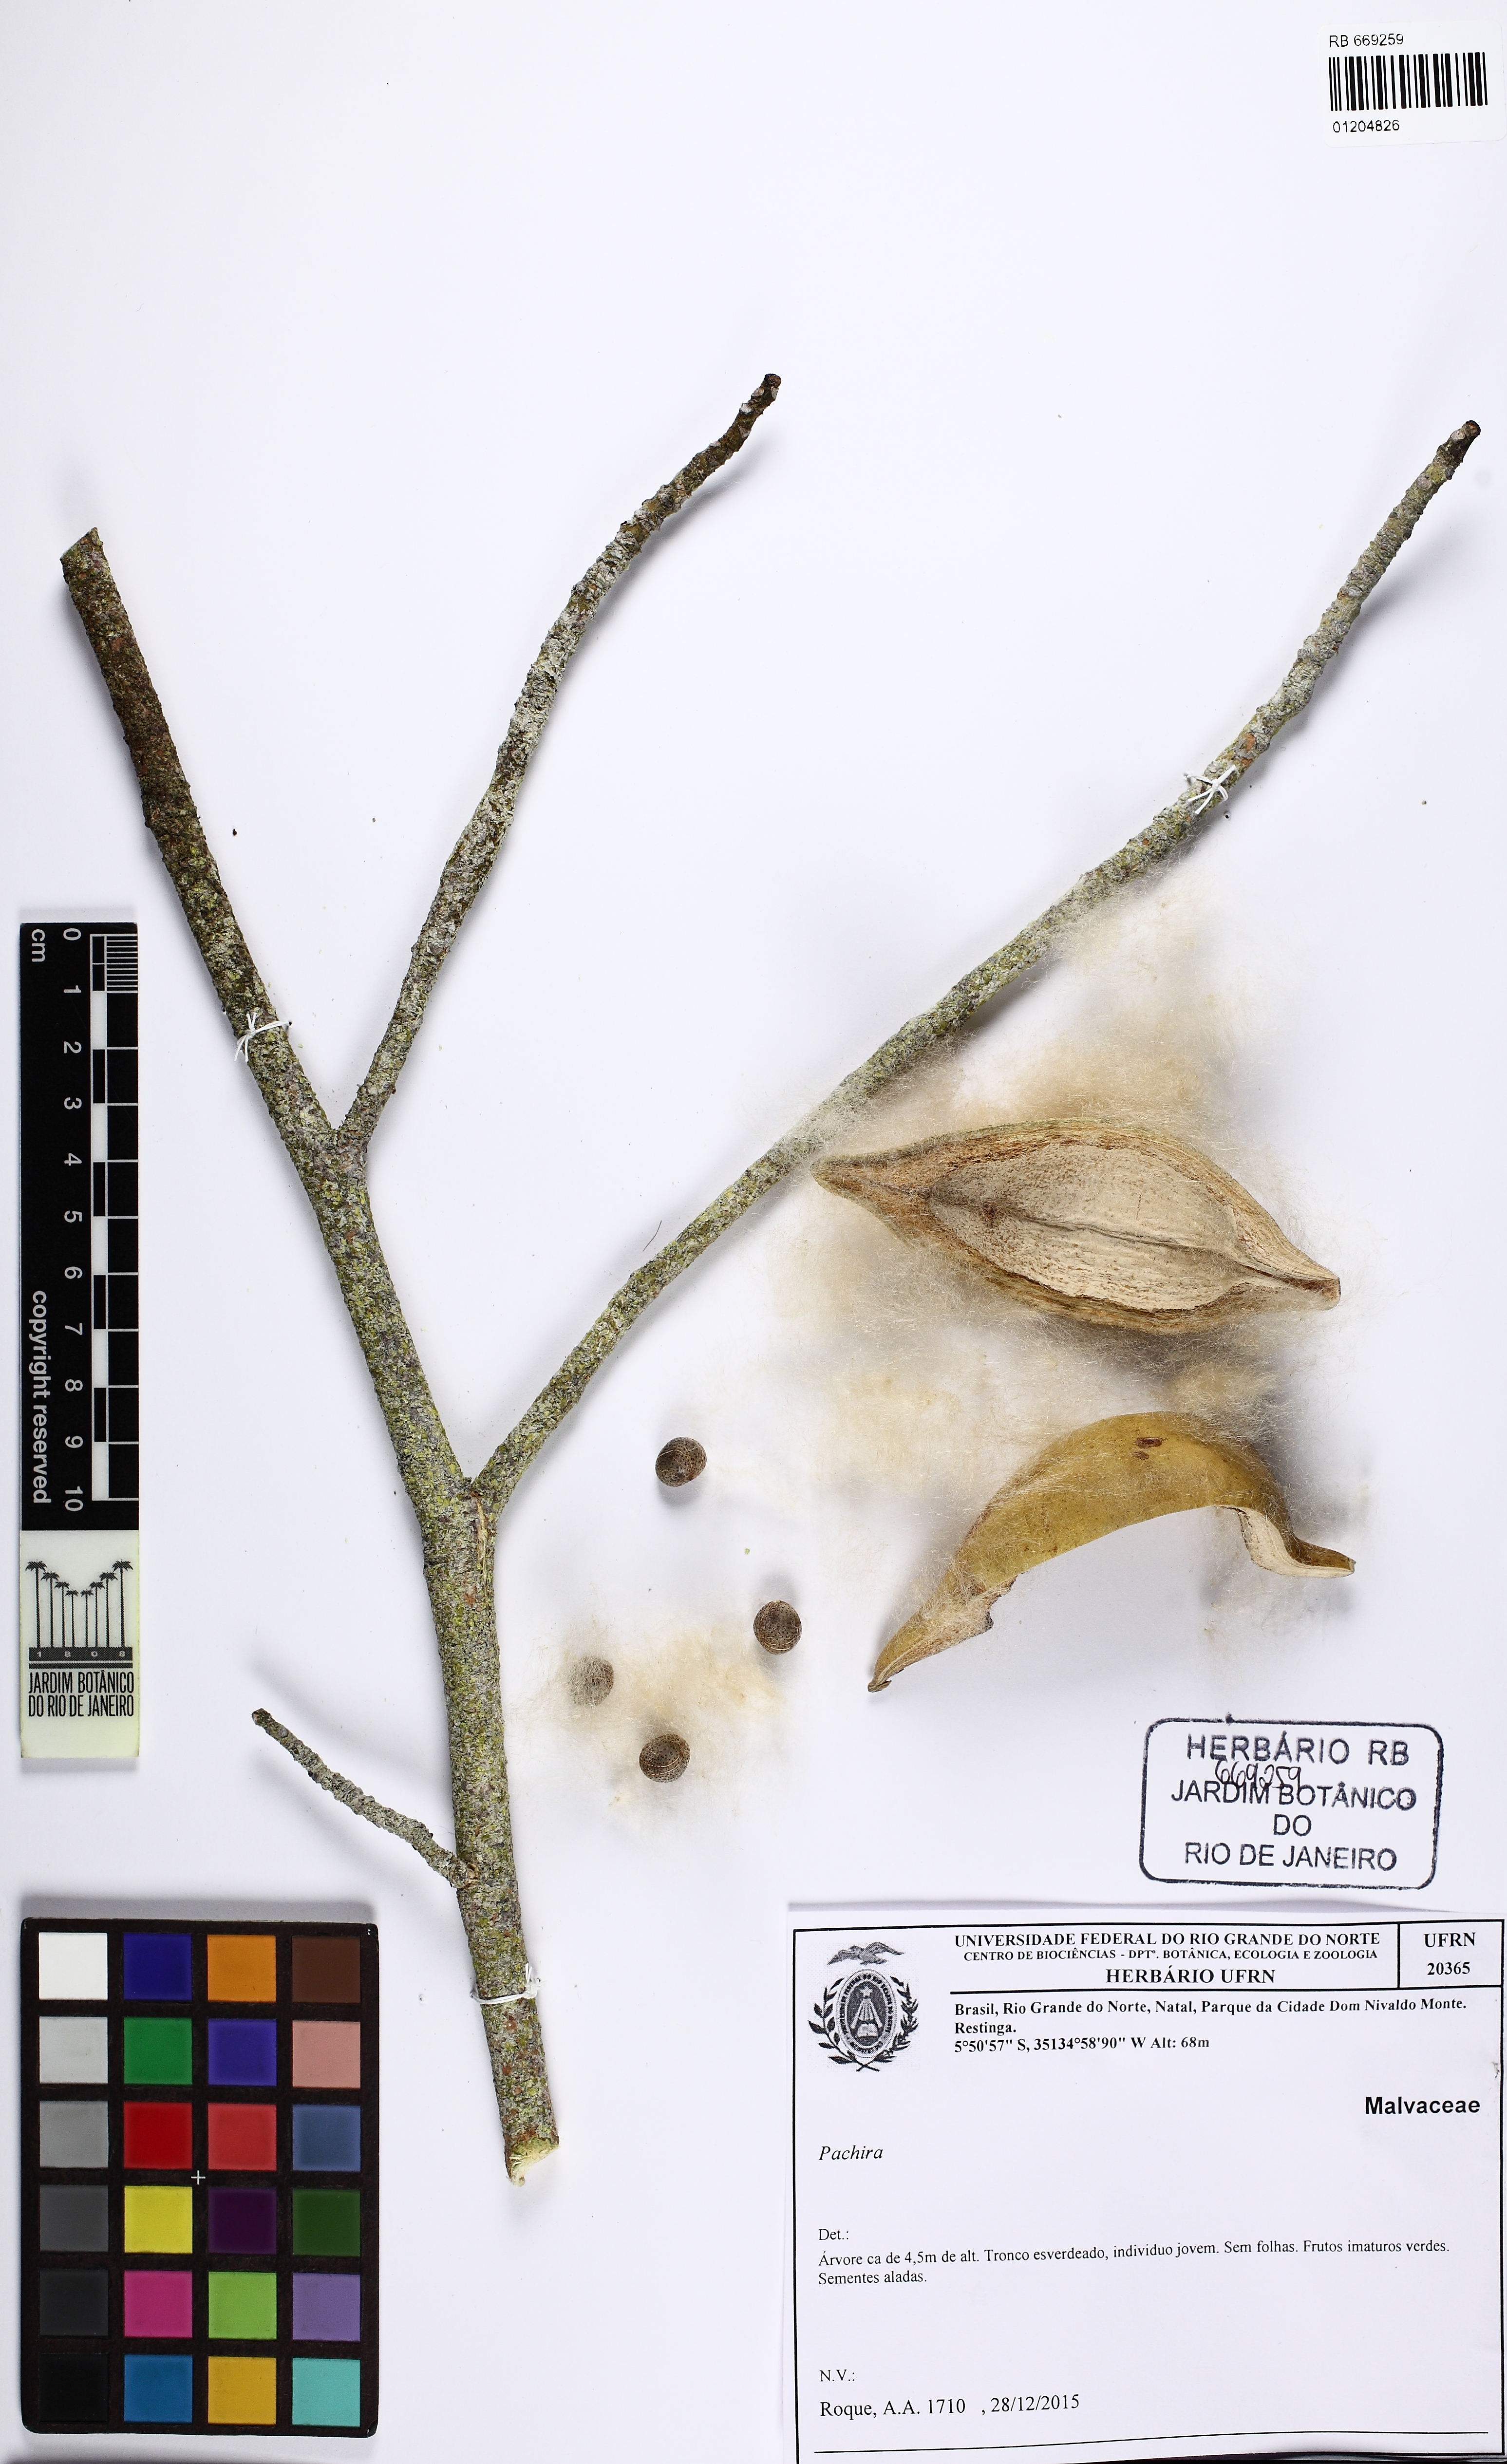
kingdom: Plantae
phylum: Tracheophyta
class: Magnoliopsida
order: Malvales
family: Malvaceae
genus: Pachira
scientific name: Pachira
